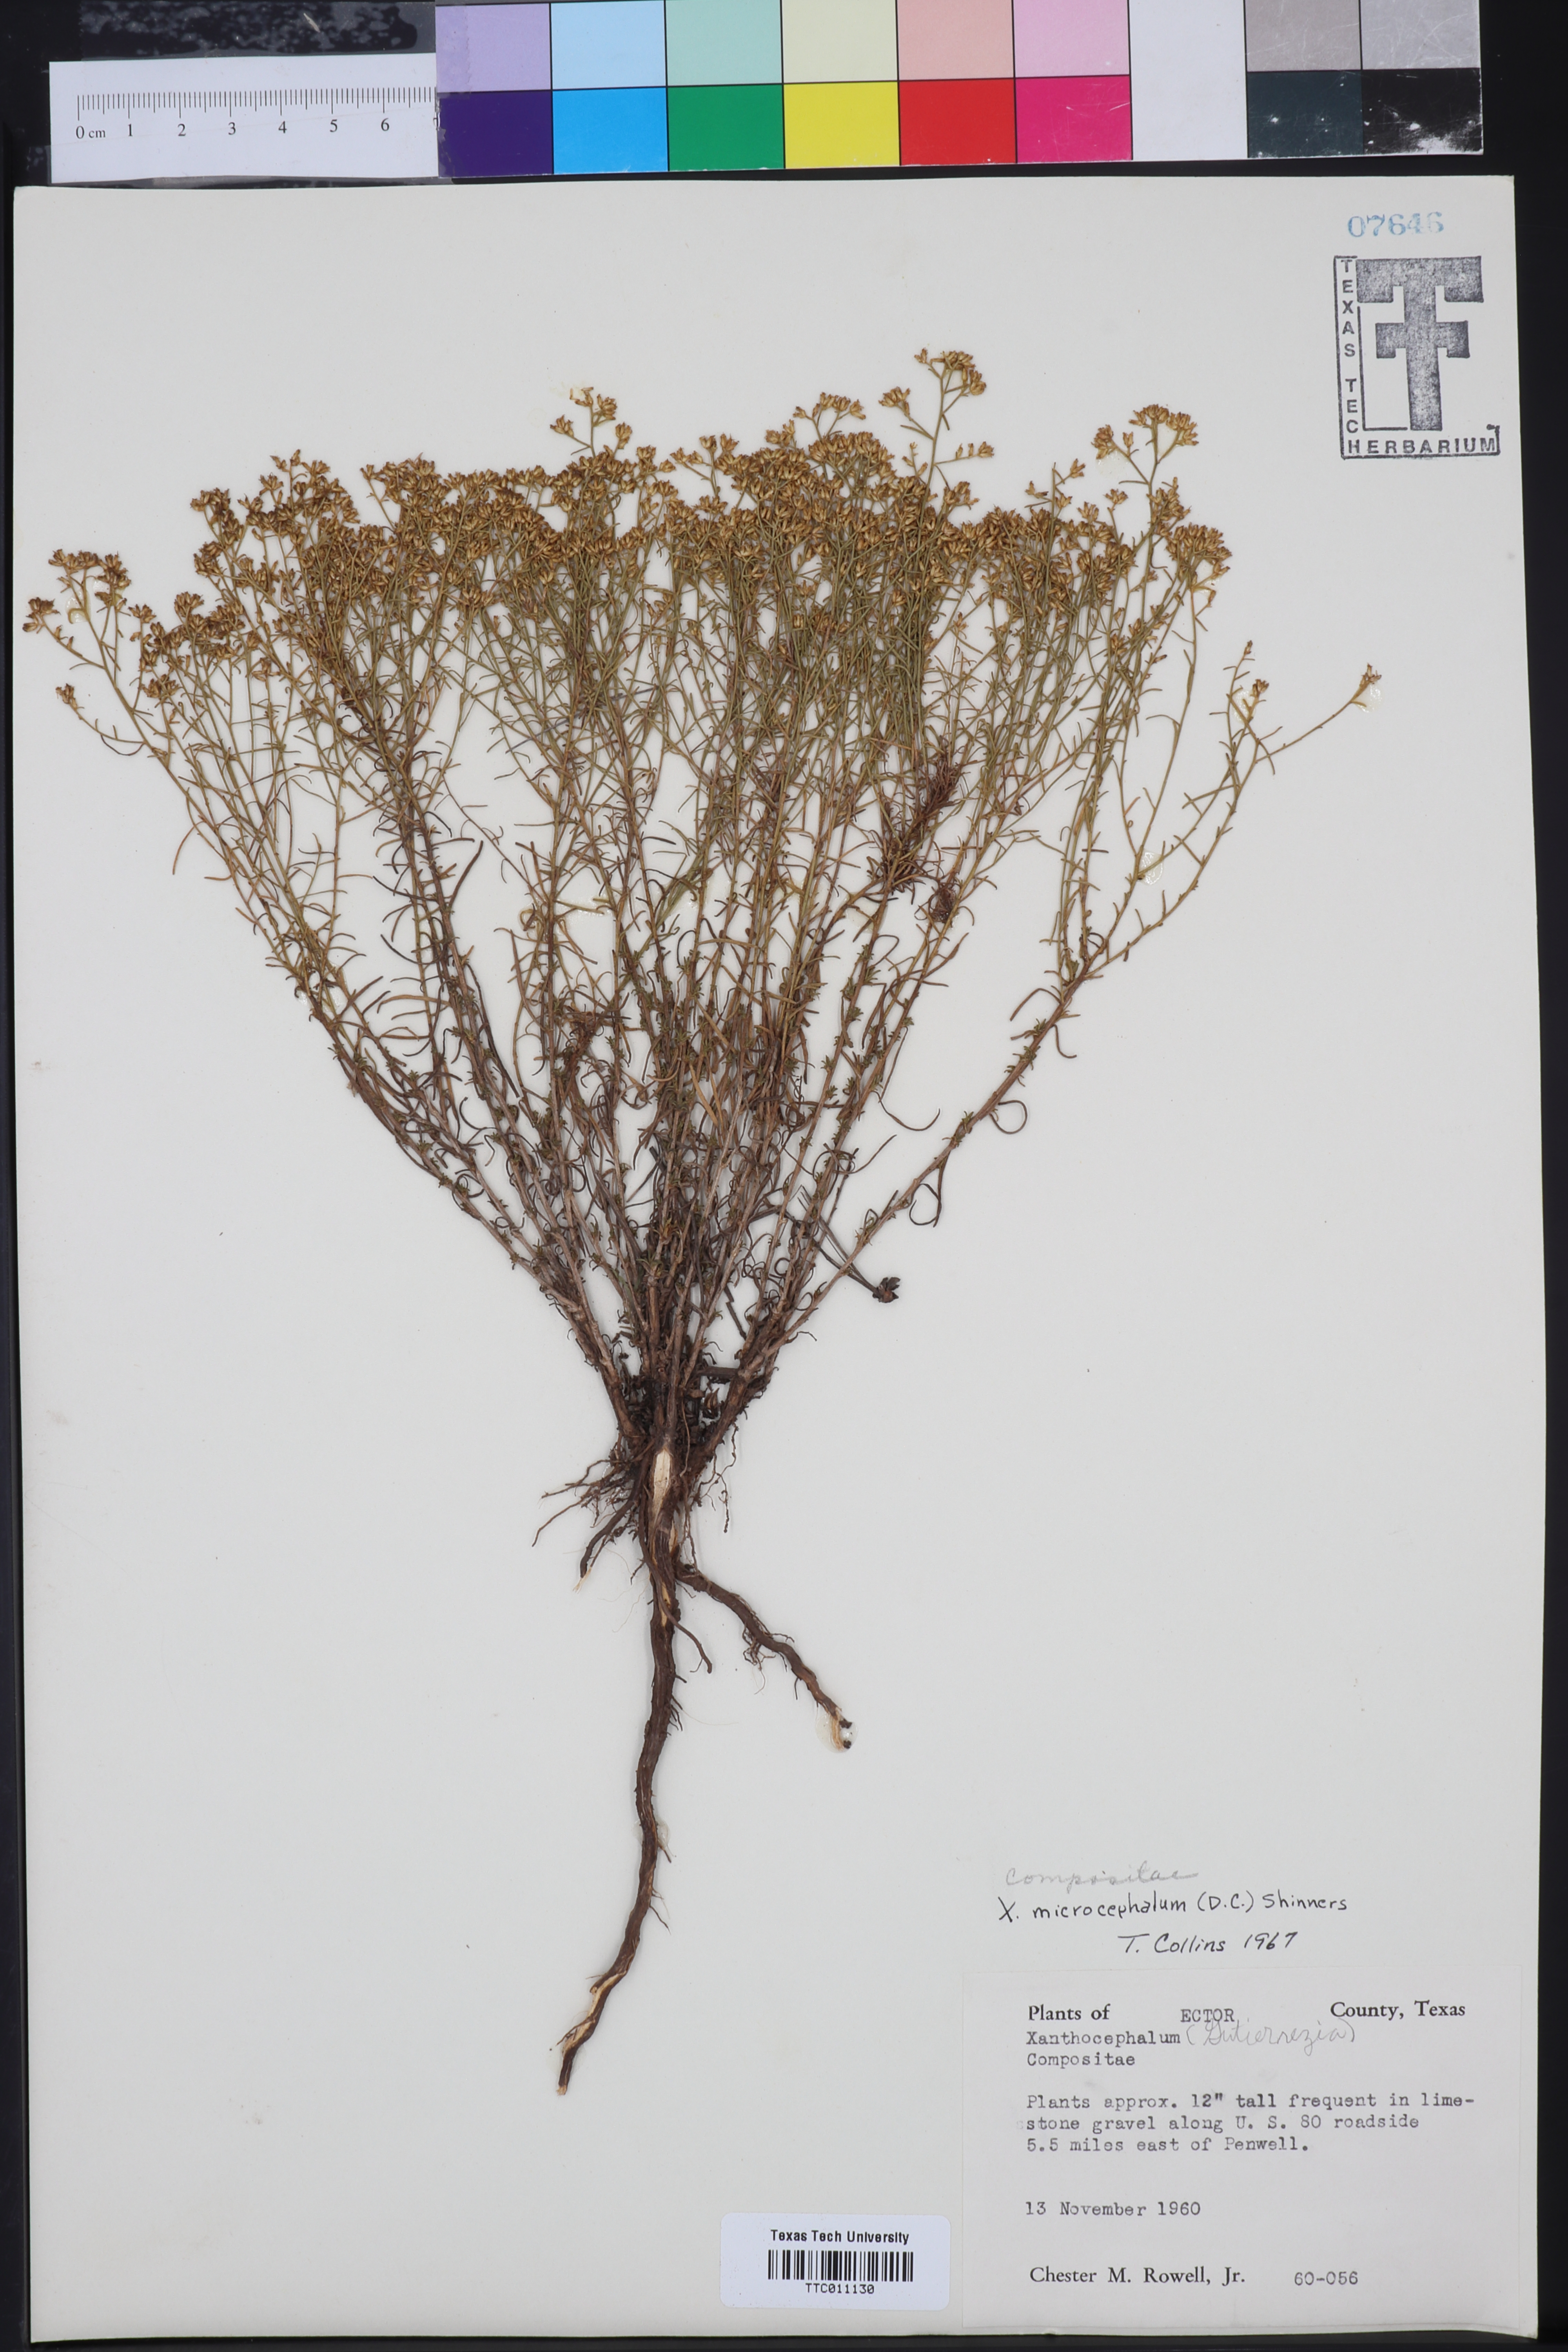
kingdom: Plantae
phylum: Tracheophyta
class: Magnoliopsida
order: Asterales
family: Asteraceae
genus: Gutierrezia
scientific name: Gutierrezia microcephala
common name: Thread snakeweed
